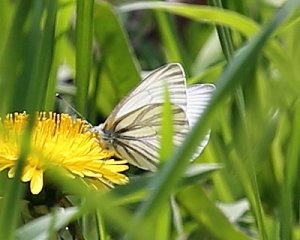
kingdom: Animalia
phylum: Arthropoda
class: Insecta
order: Lepidoptera
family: Pieridae
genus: Pieris
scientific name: Pieris oleracea
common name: Mustard White
